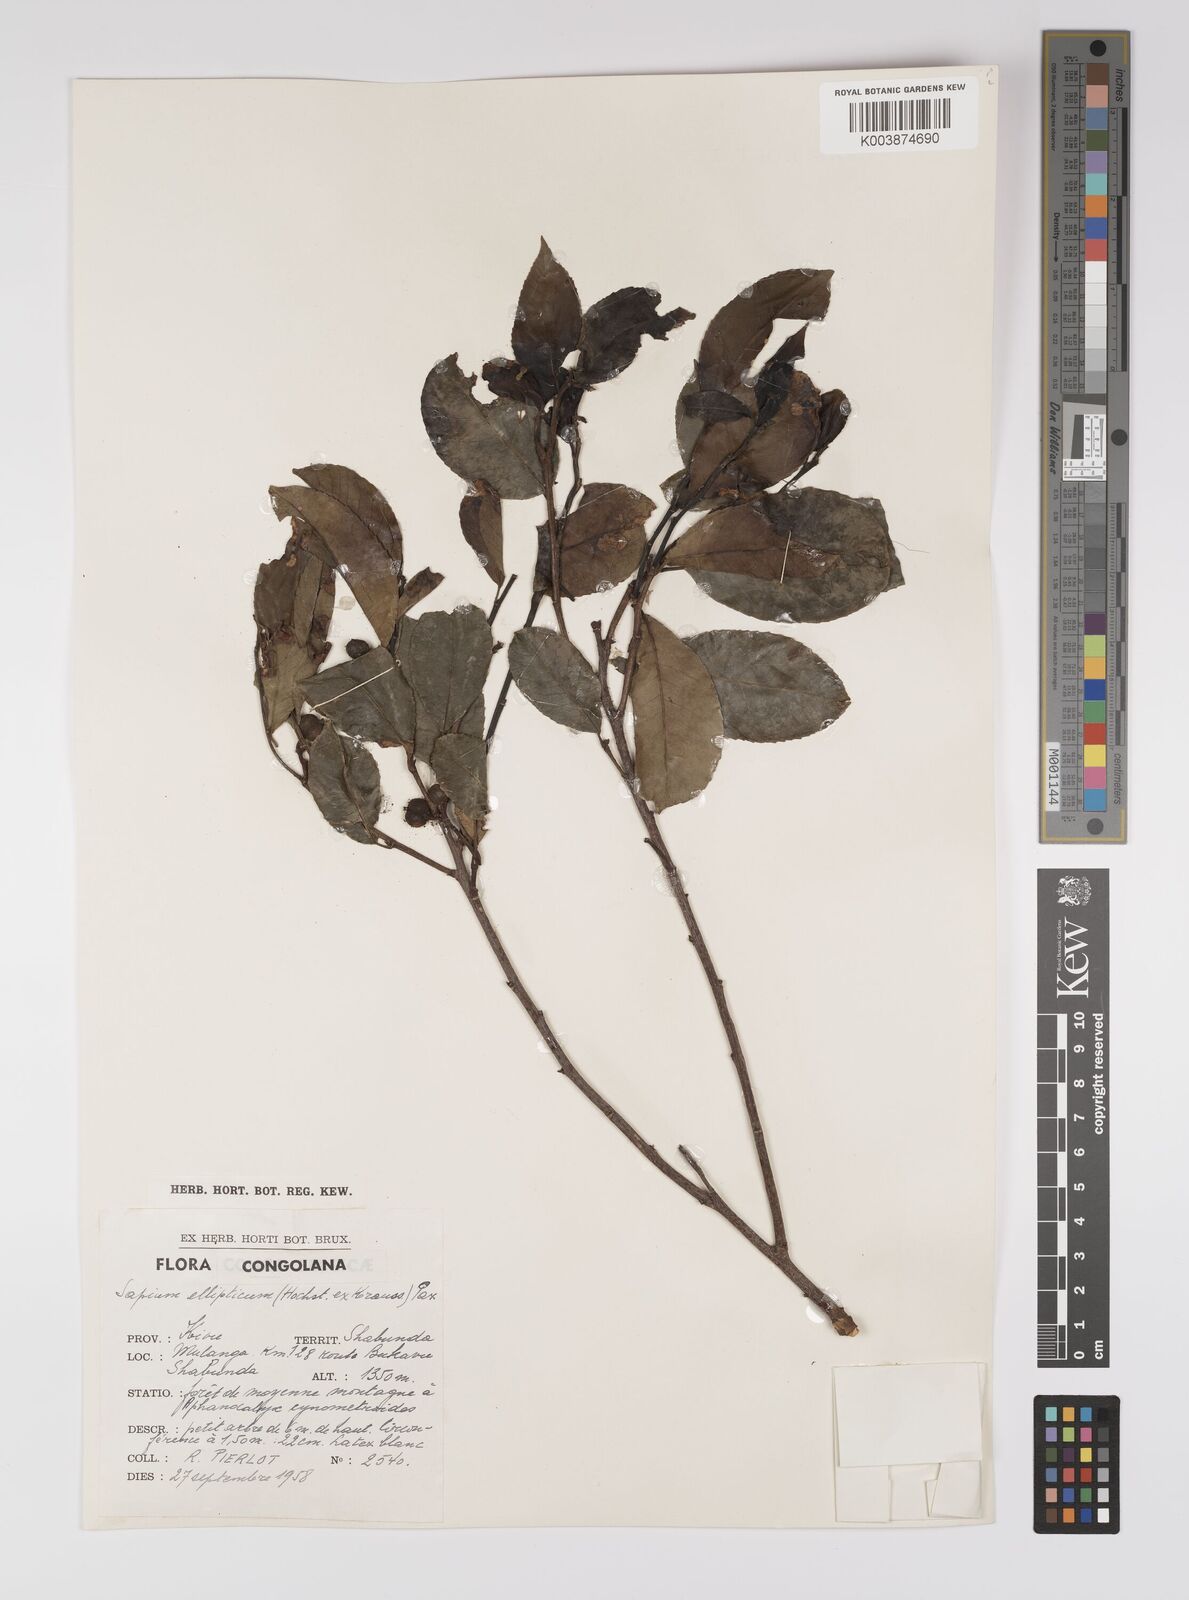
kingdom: Plantae
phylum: Tracheophyta
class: Magnoliopsida
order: Malpighiales
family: Euphorbiaceae
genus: Shirakiopsis
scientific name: Shirakiopsis elliptica
